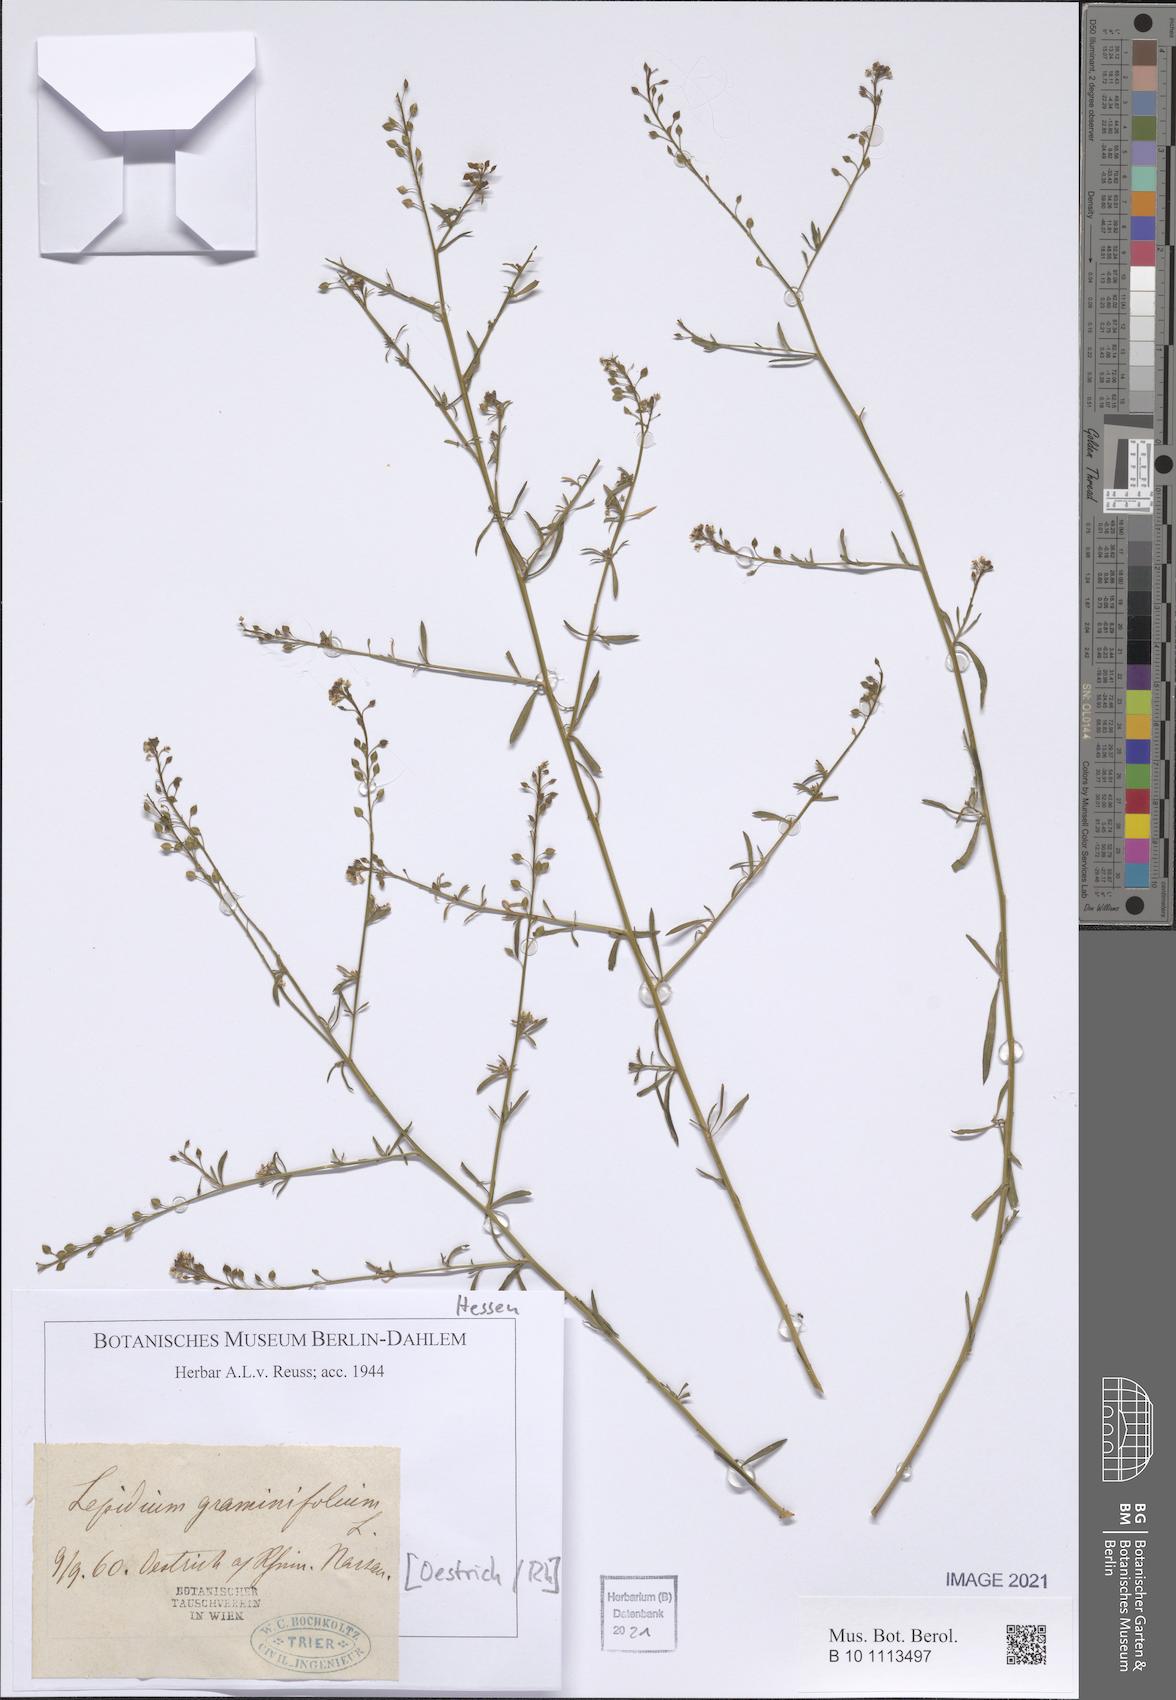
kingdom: Plantae
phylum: Tracheophyta
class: Magnoliopsida
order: Brassicales
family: Brassicaceae
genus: Lepidium
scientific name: Lepidium graminifolium
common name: Tall pepperwort
